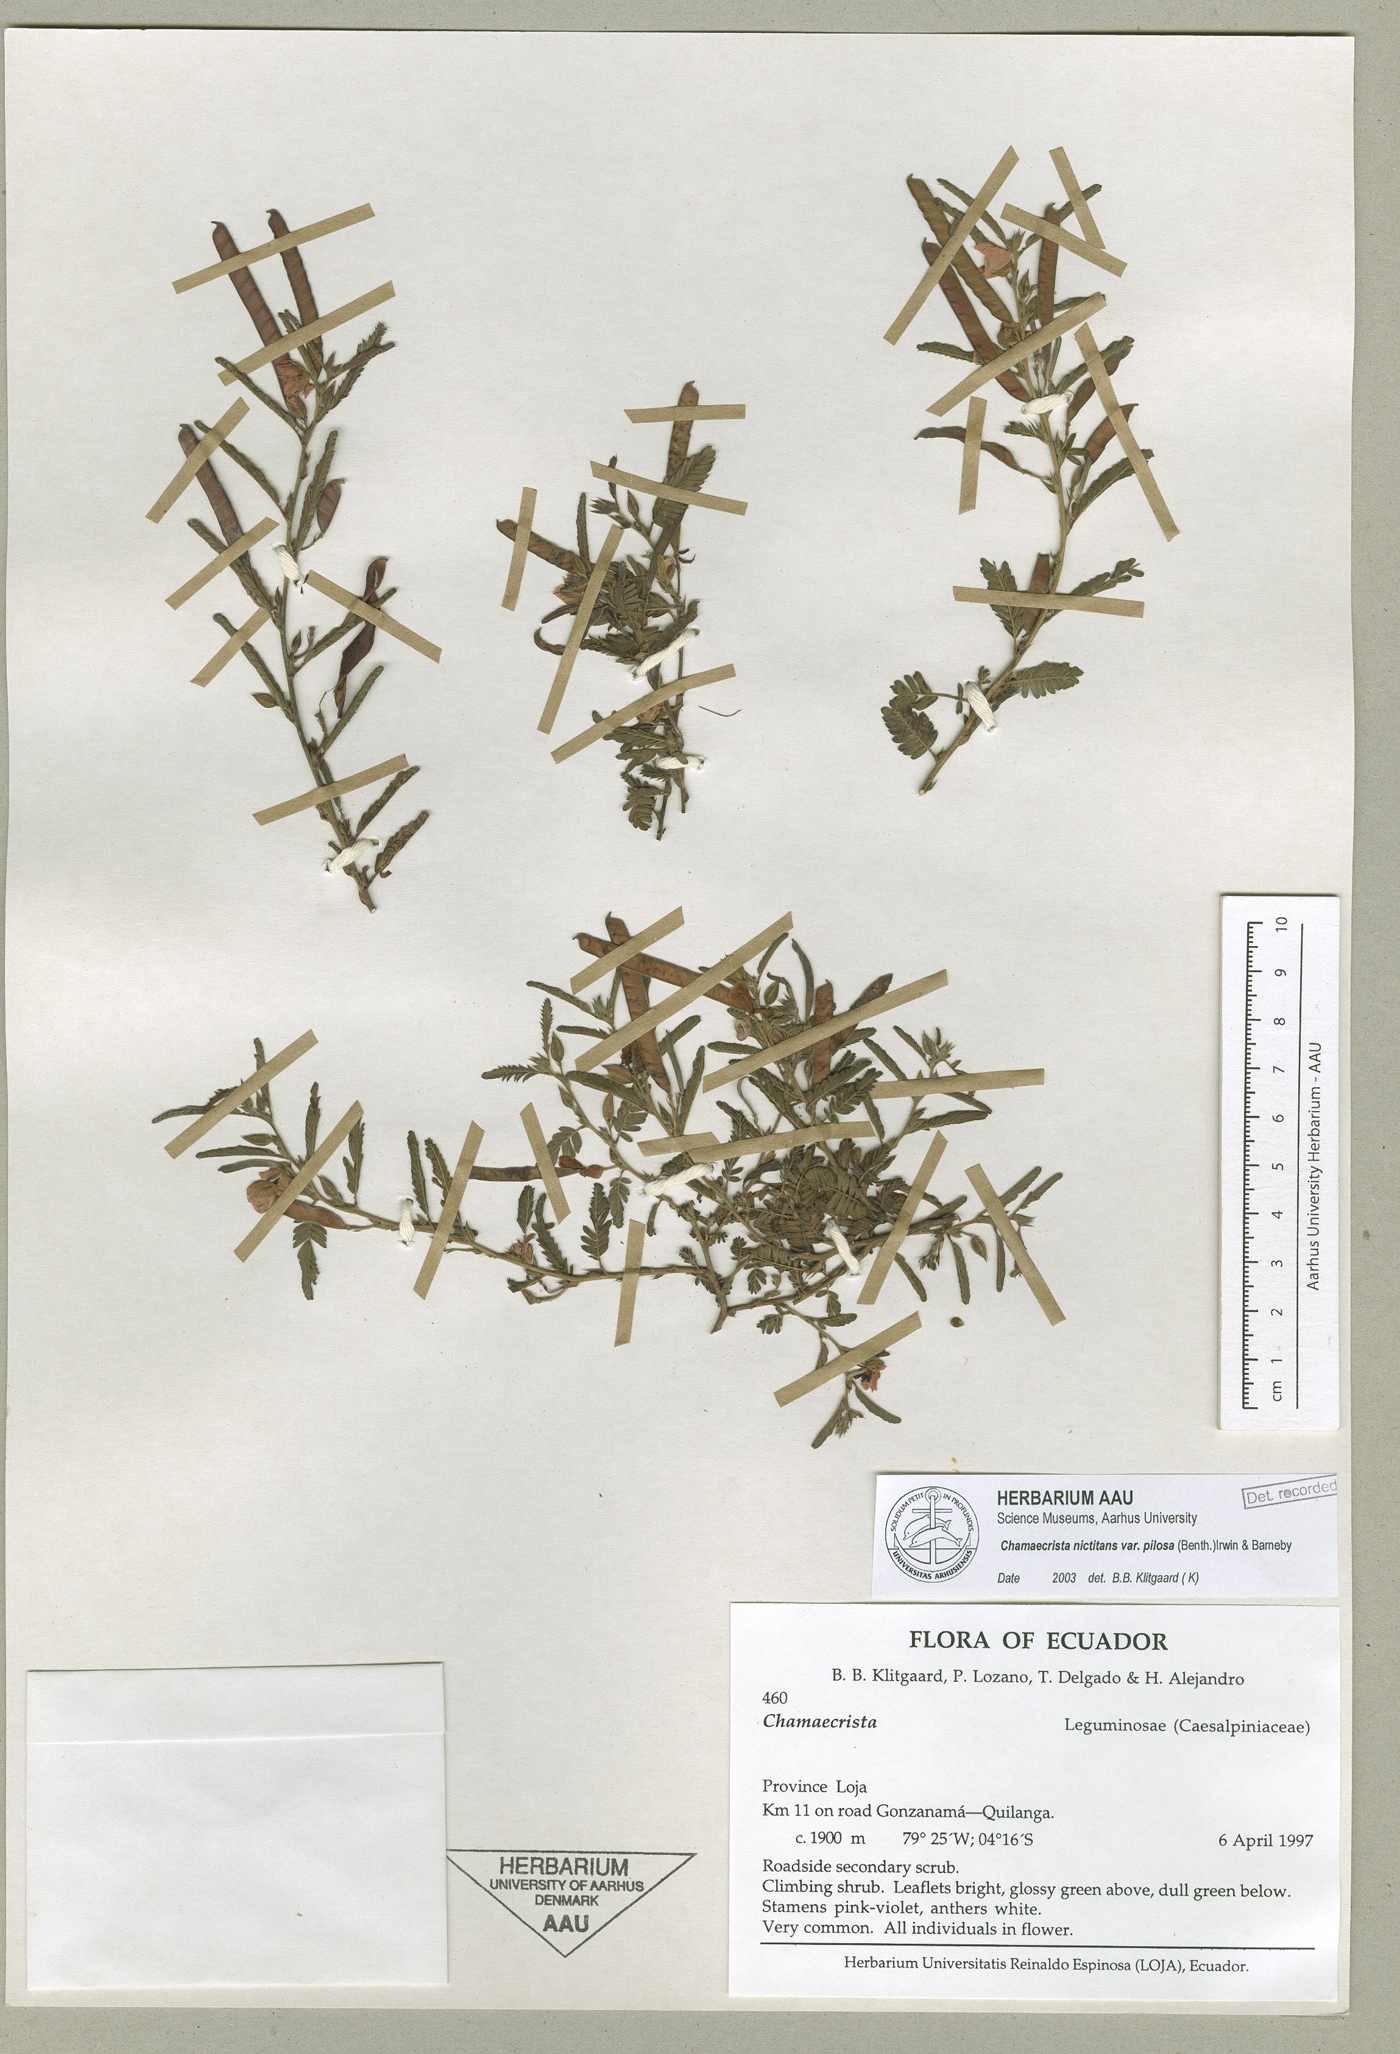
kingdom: Plantae
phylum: Tracheophyta
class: Magnoliopsida
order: Fabales
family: Fabaceae
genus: Chamaecrista
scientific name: Chamaecrista nictitans
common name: Sensitive cassia
